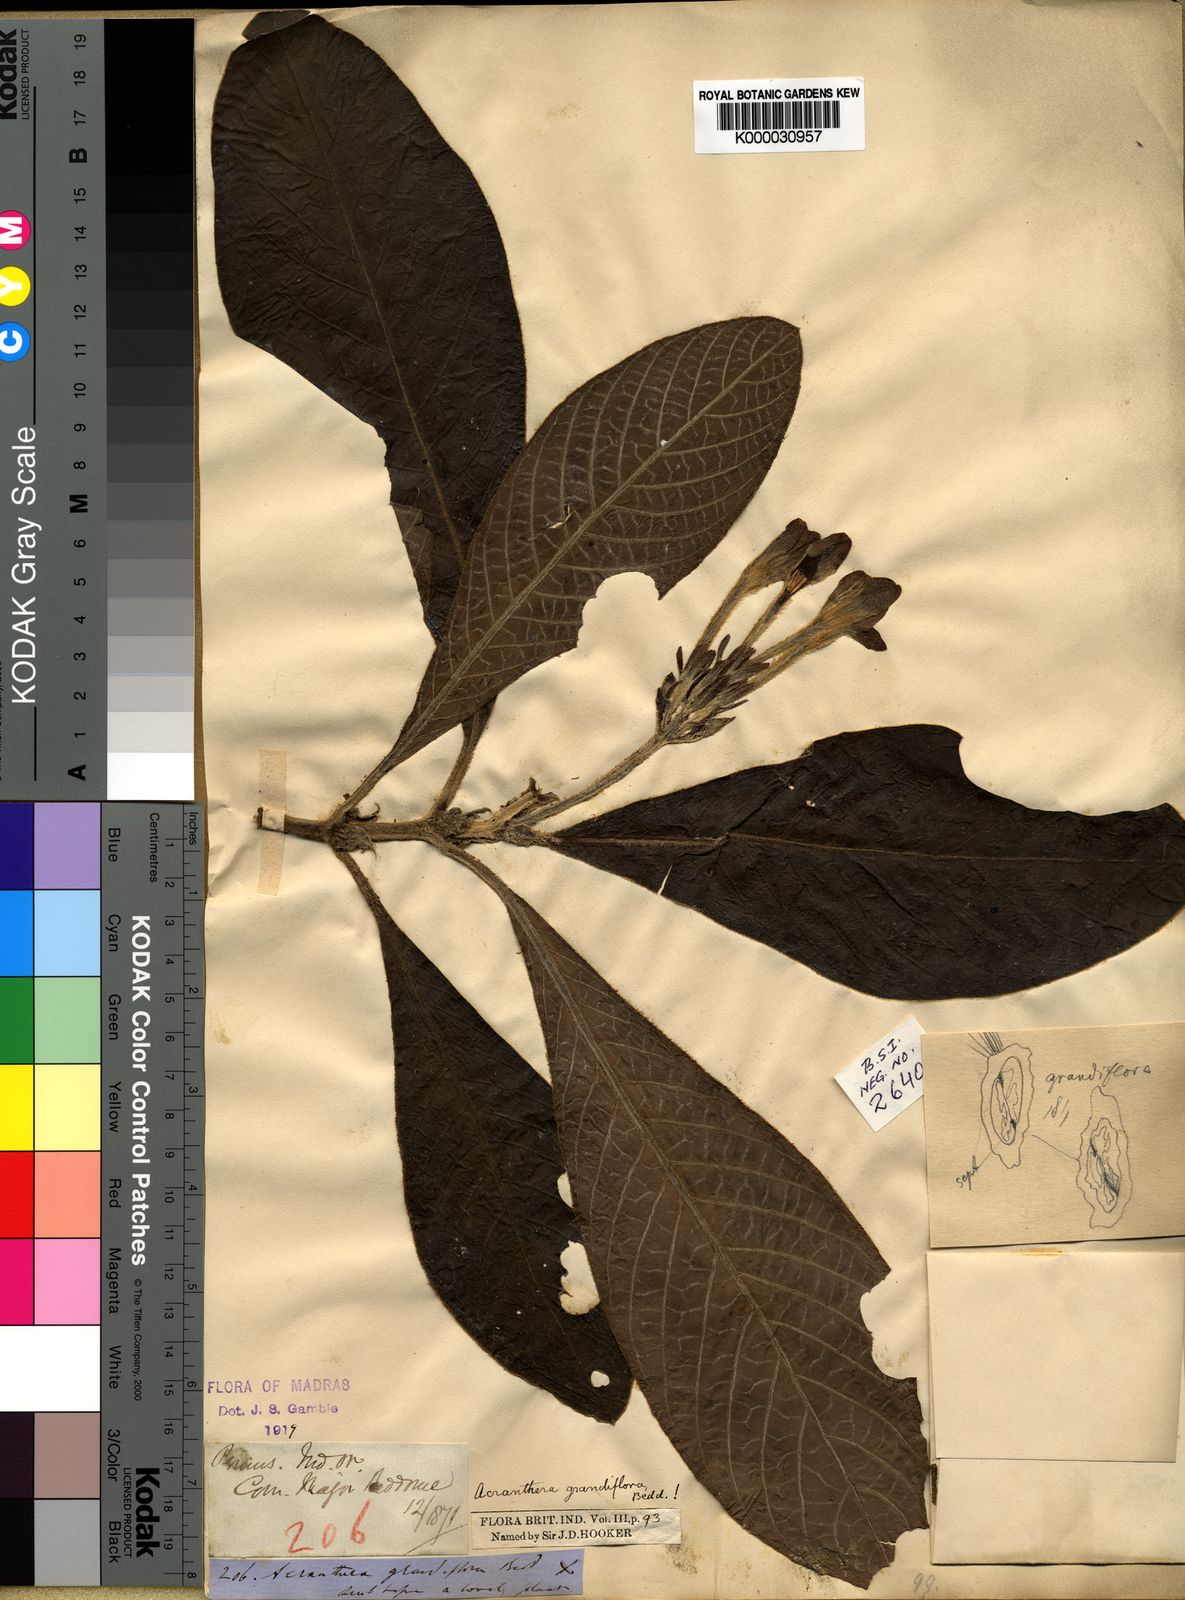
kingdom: Plantae
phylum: Tracheophyta
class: Magnoliopsida
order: Gentianales
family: Rubiaceae
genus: Acranthera
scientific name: Acranthera grandiflora
